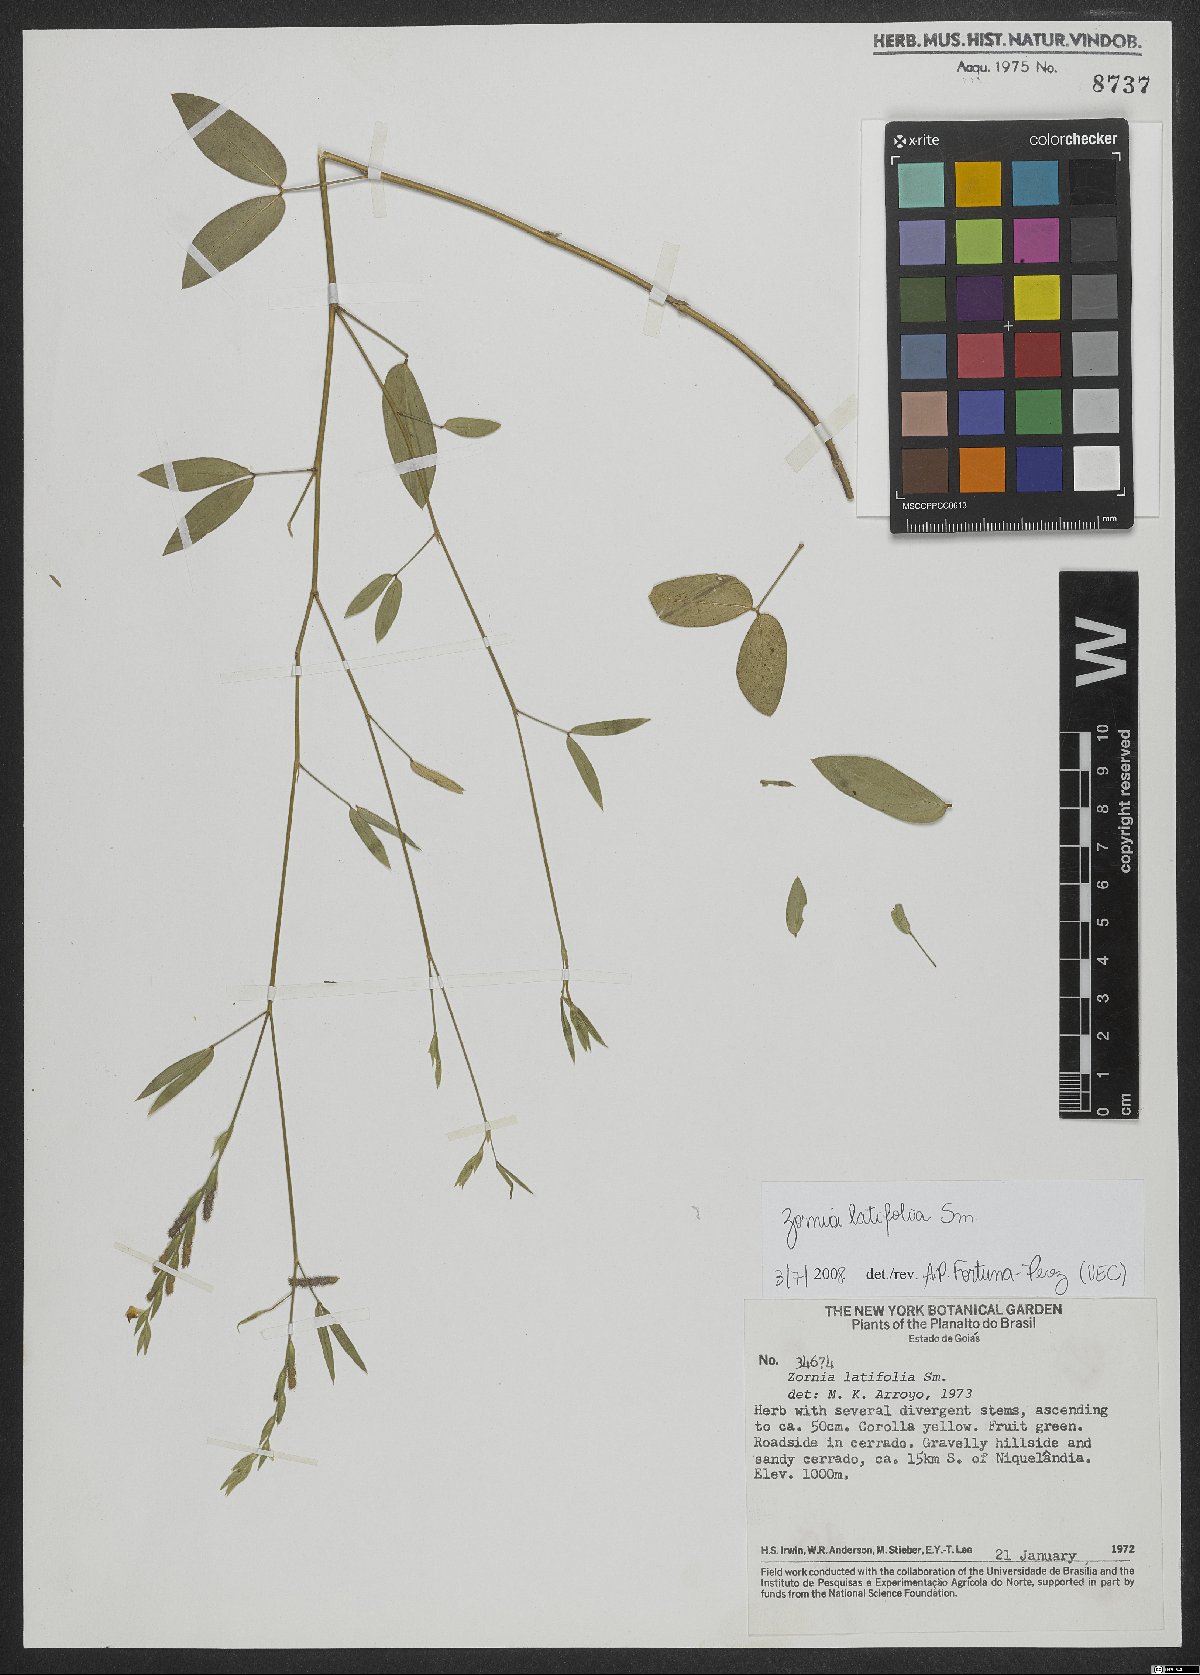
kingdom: Plantae
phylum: Tracheophyta
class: Magnoliopsida
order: Fabales
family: Fabaceae
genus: Zornia
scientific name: Zornia sericea
